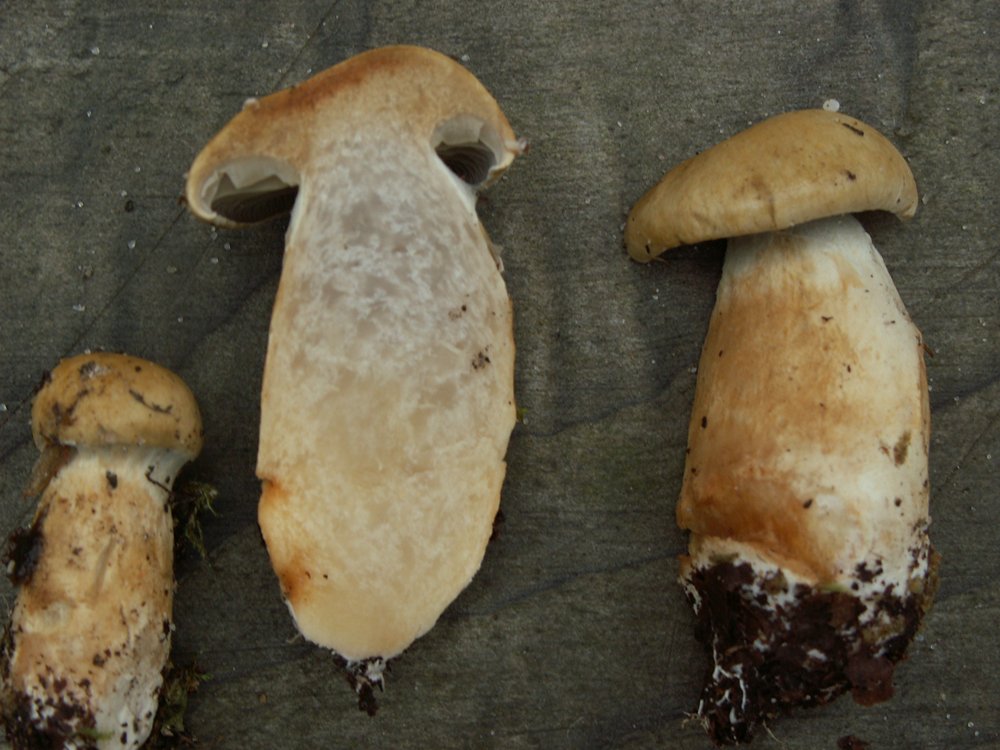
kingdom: Fungi
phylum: Basidiomycota
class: Agaricomycetes
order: Agaricales
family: Cortinariaceae
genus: Cortinarius
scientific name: Cortinarius subtortus
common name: olivengul slørhat
